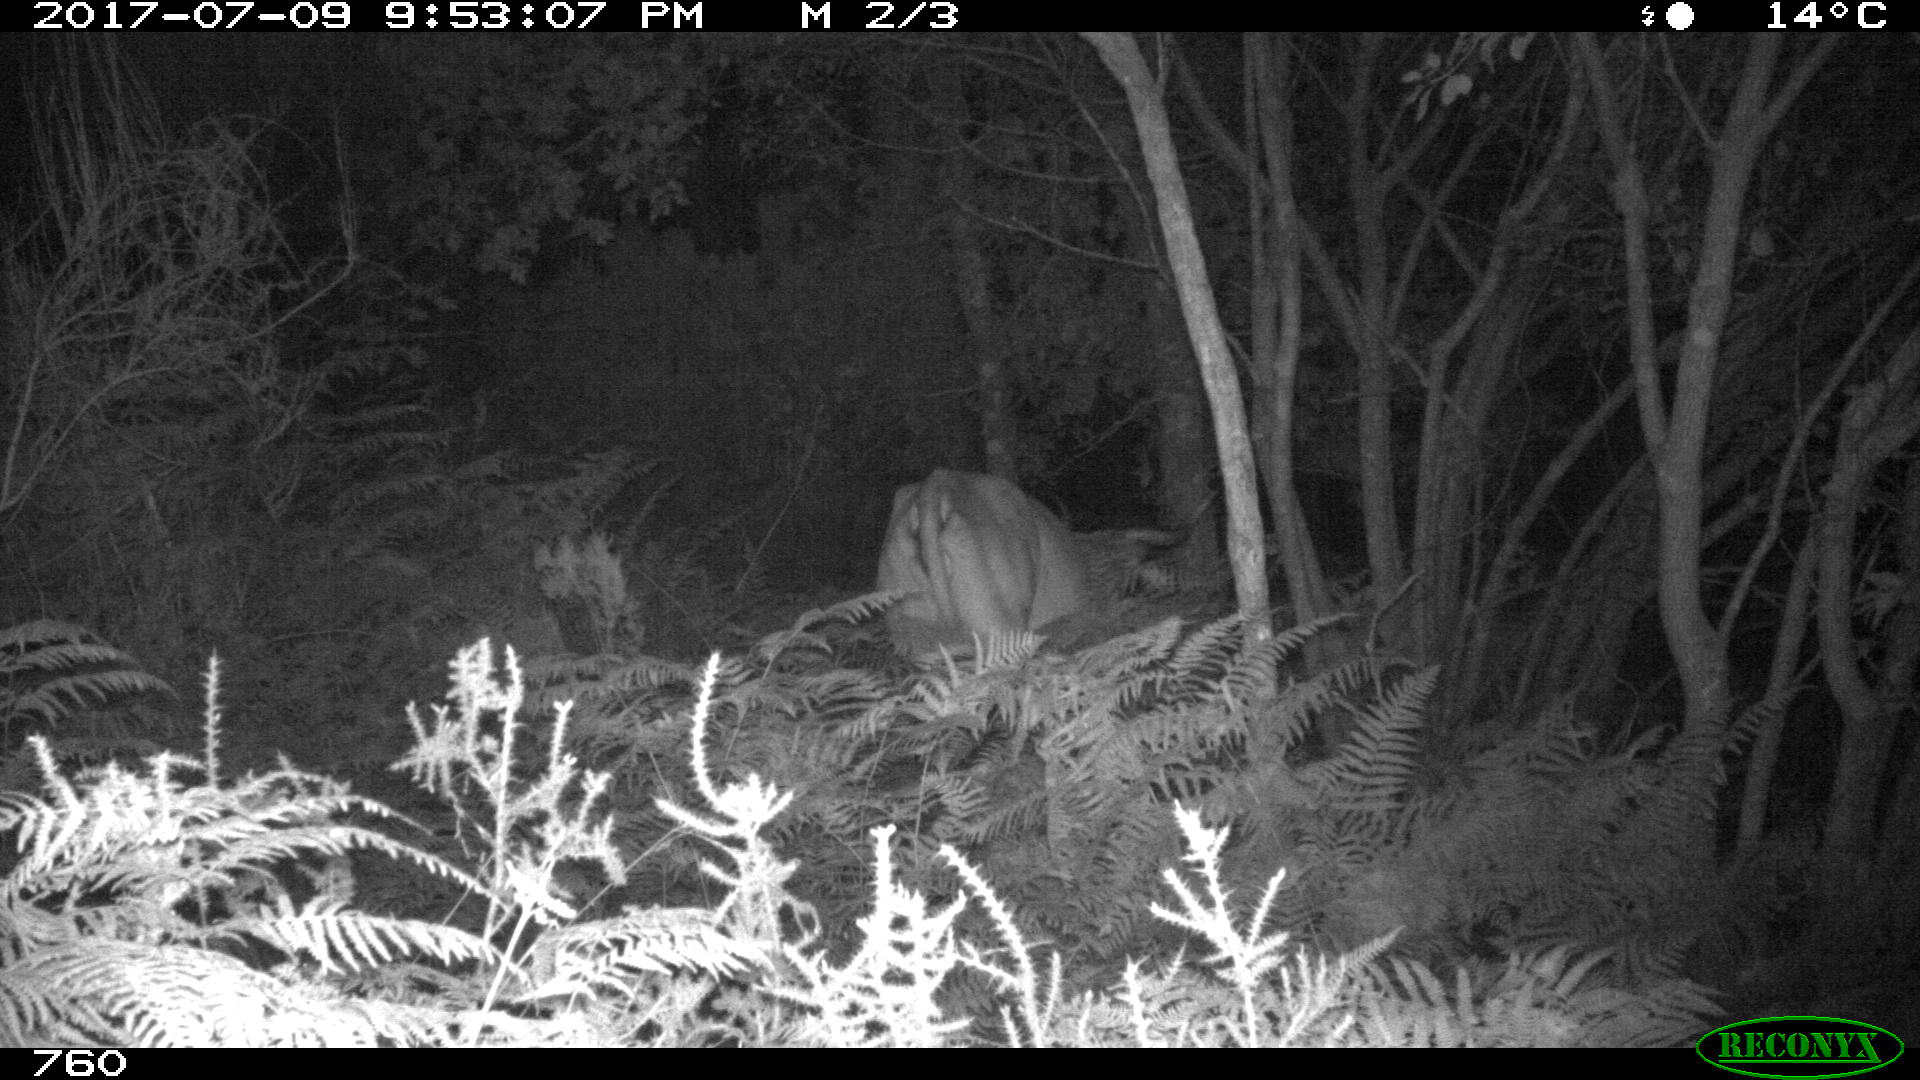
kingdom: Animalia
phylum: Chordata
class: Mammalia
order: Artiodactyla
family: Bovidae
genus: Bos
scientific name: Bos taurus
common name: Domesticated cattle
